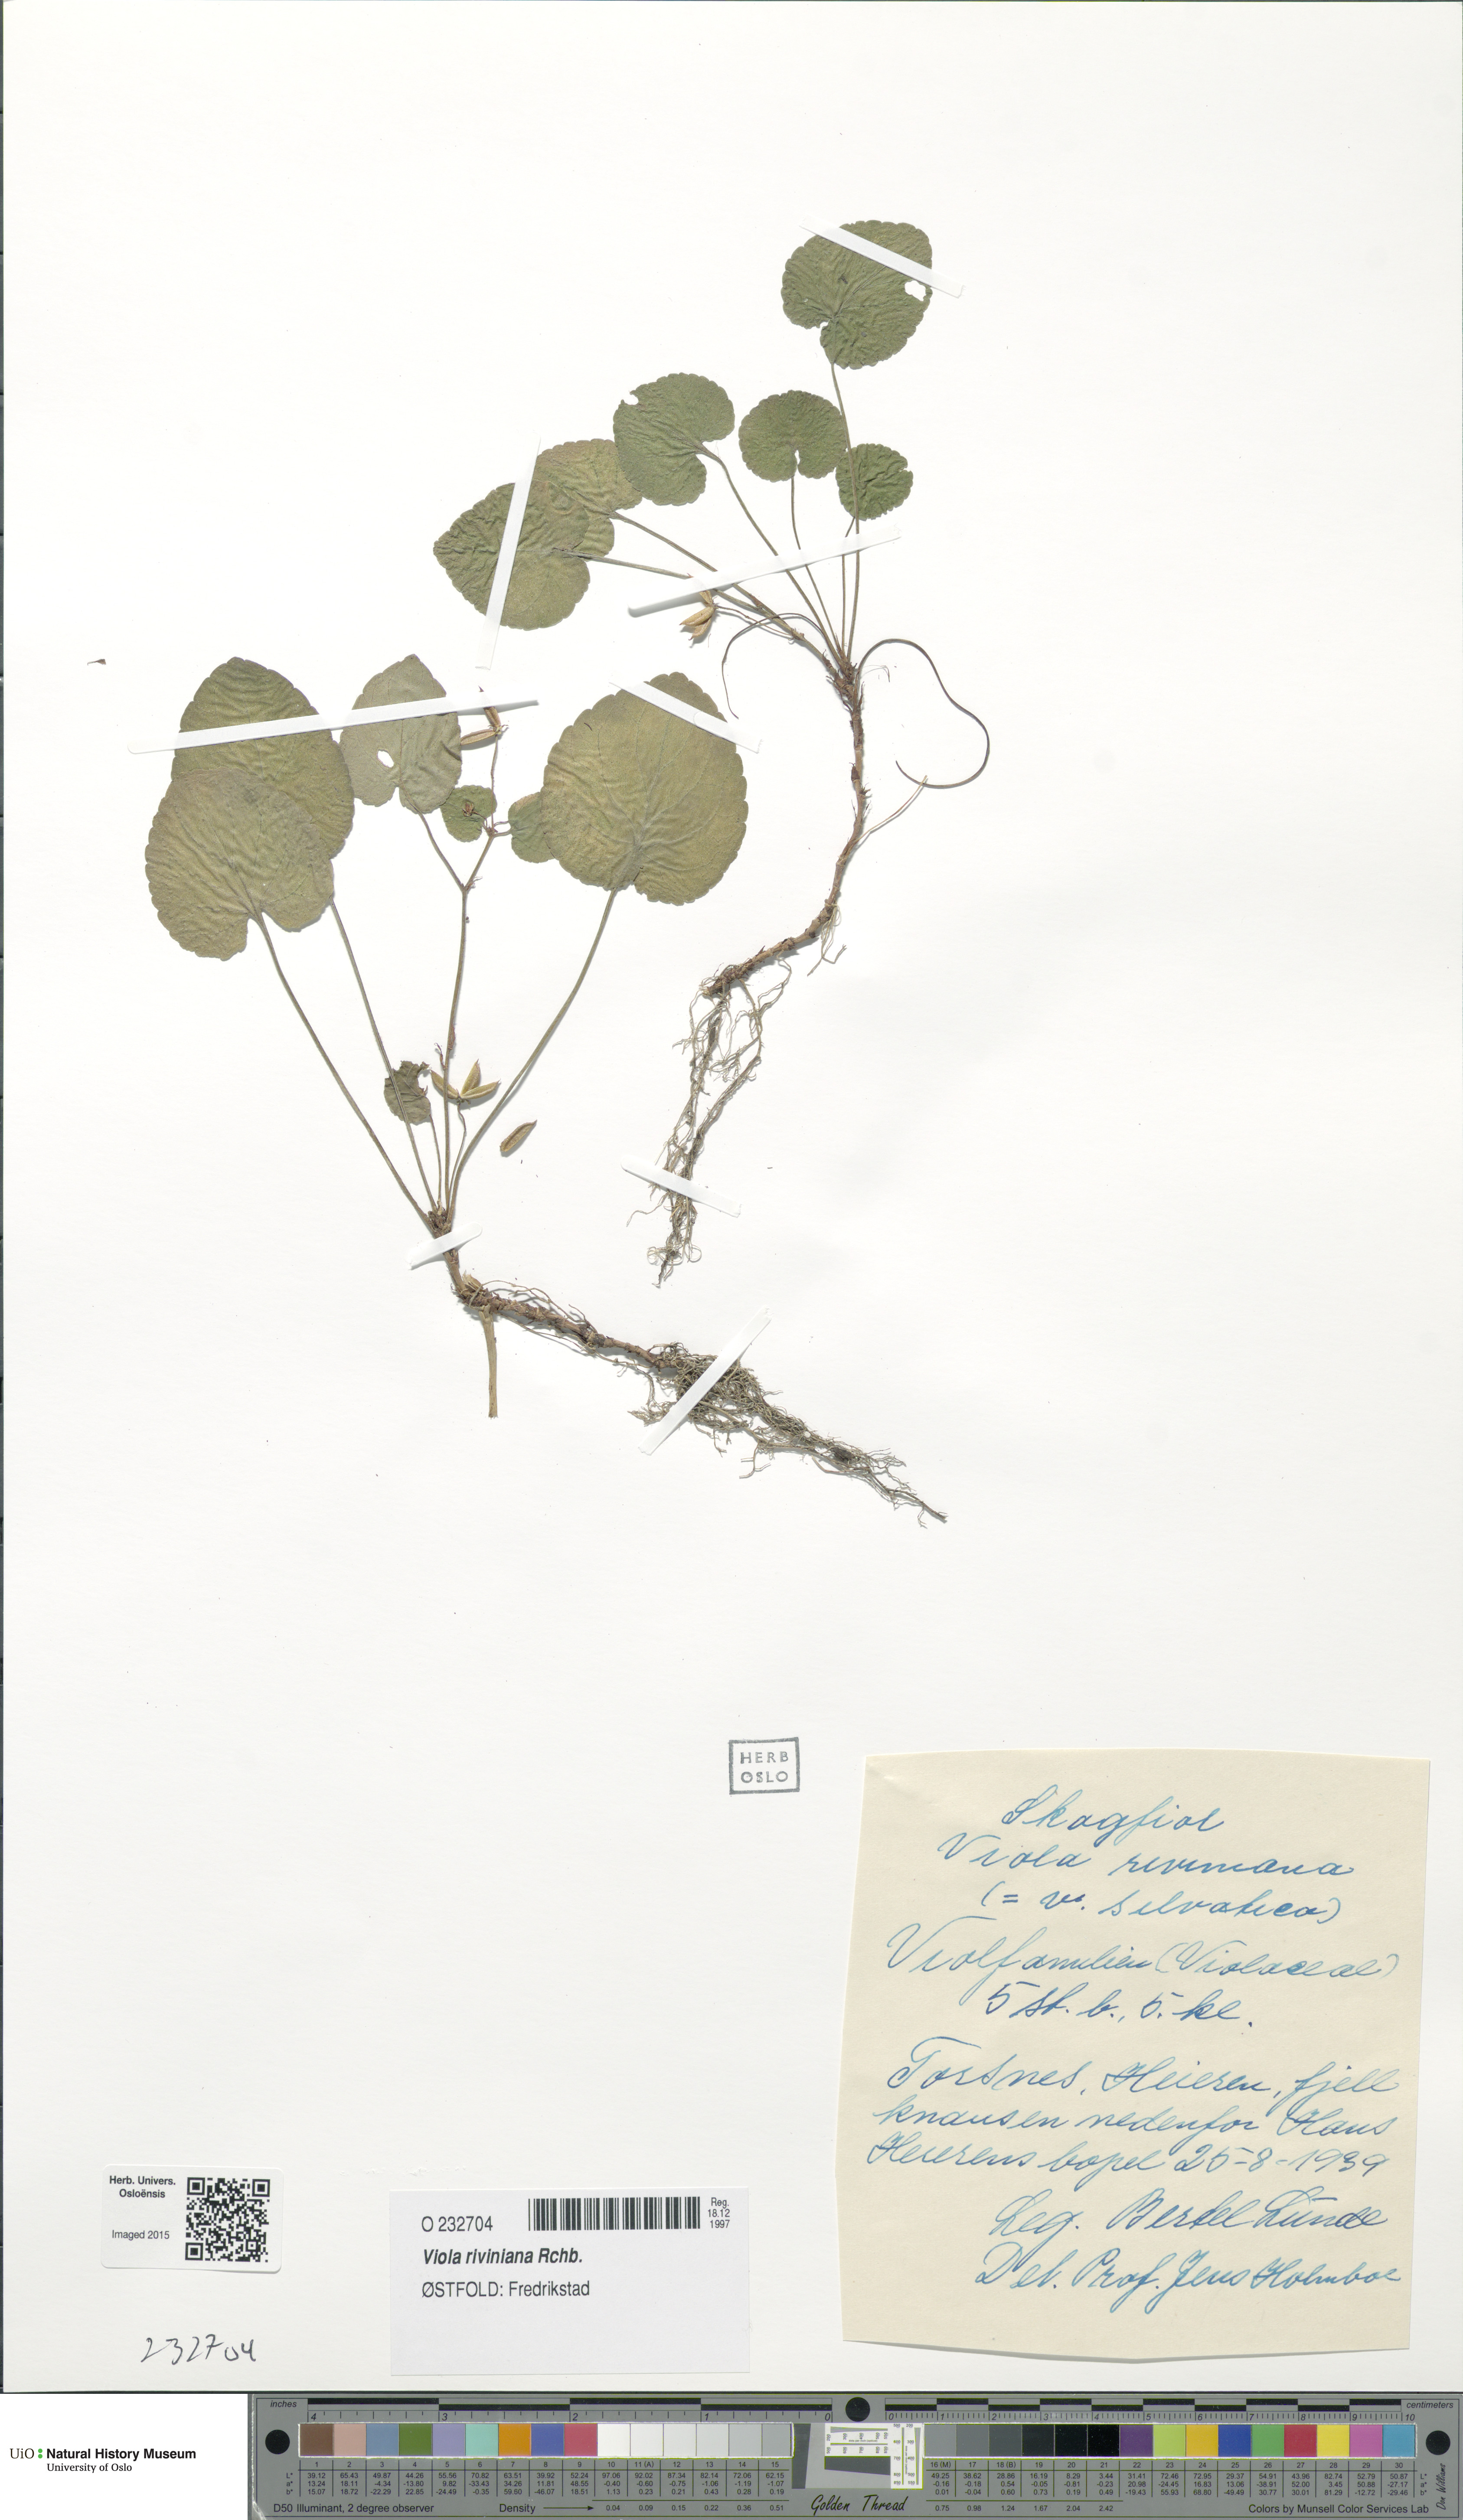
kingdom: Plantae
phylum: Tracheophyta
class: Magnoliopsida
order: Malpighiales
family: Violaceae
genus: Viola
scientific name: Viola riviniana
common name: Common dog-violet
